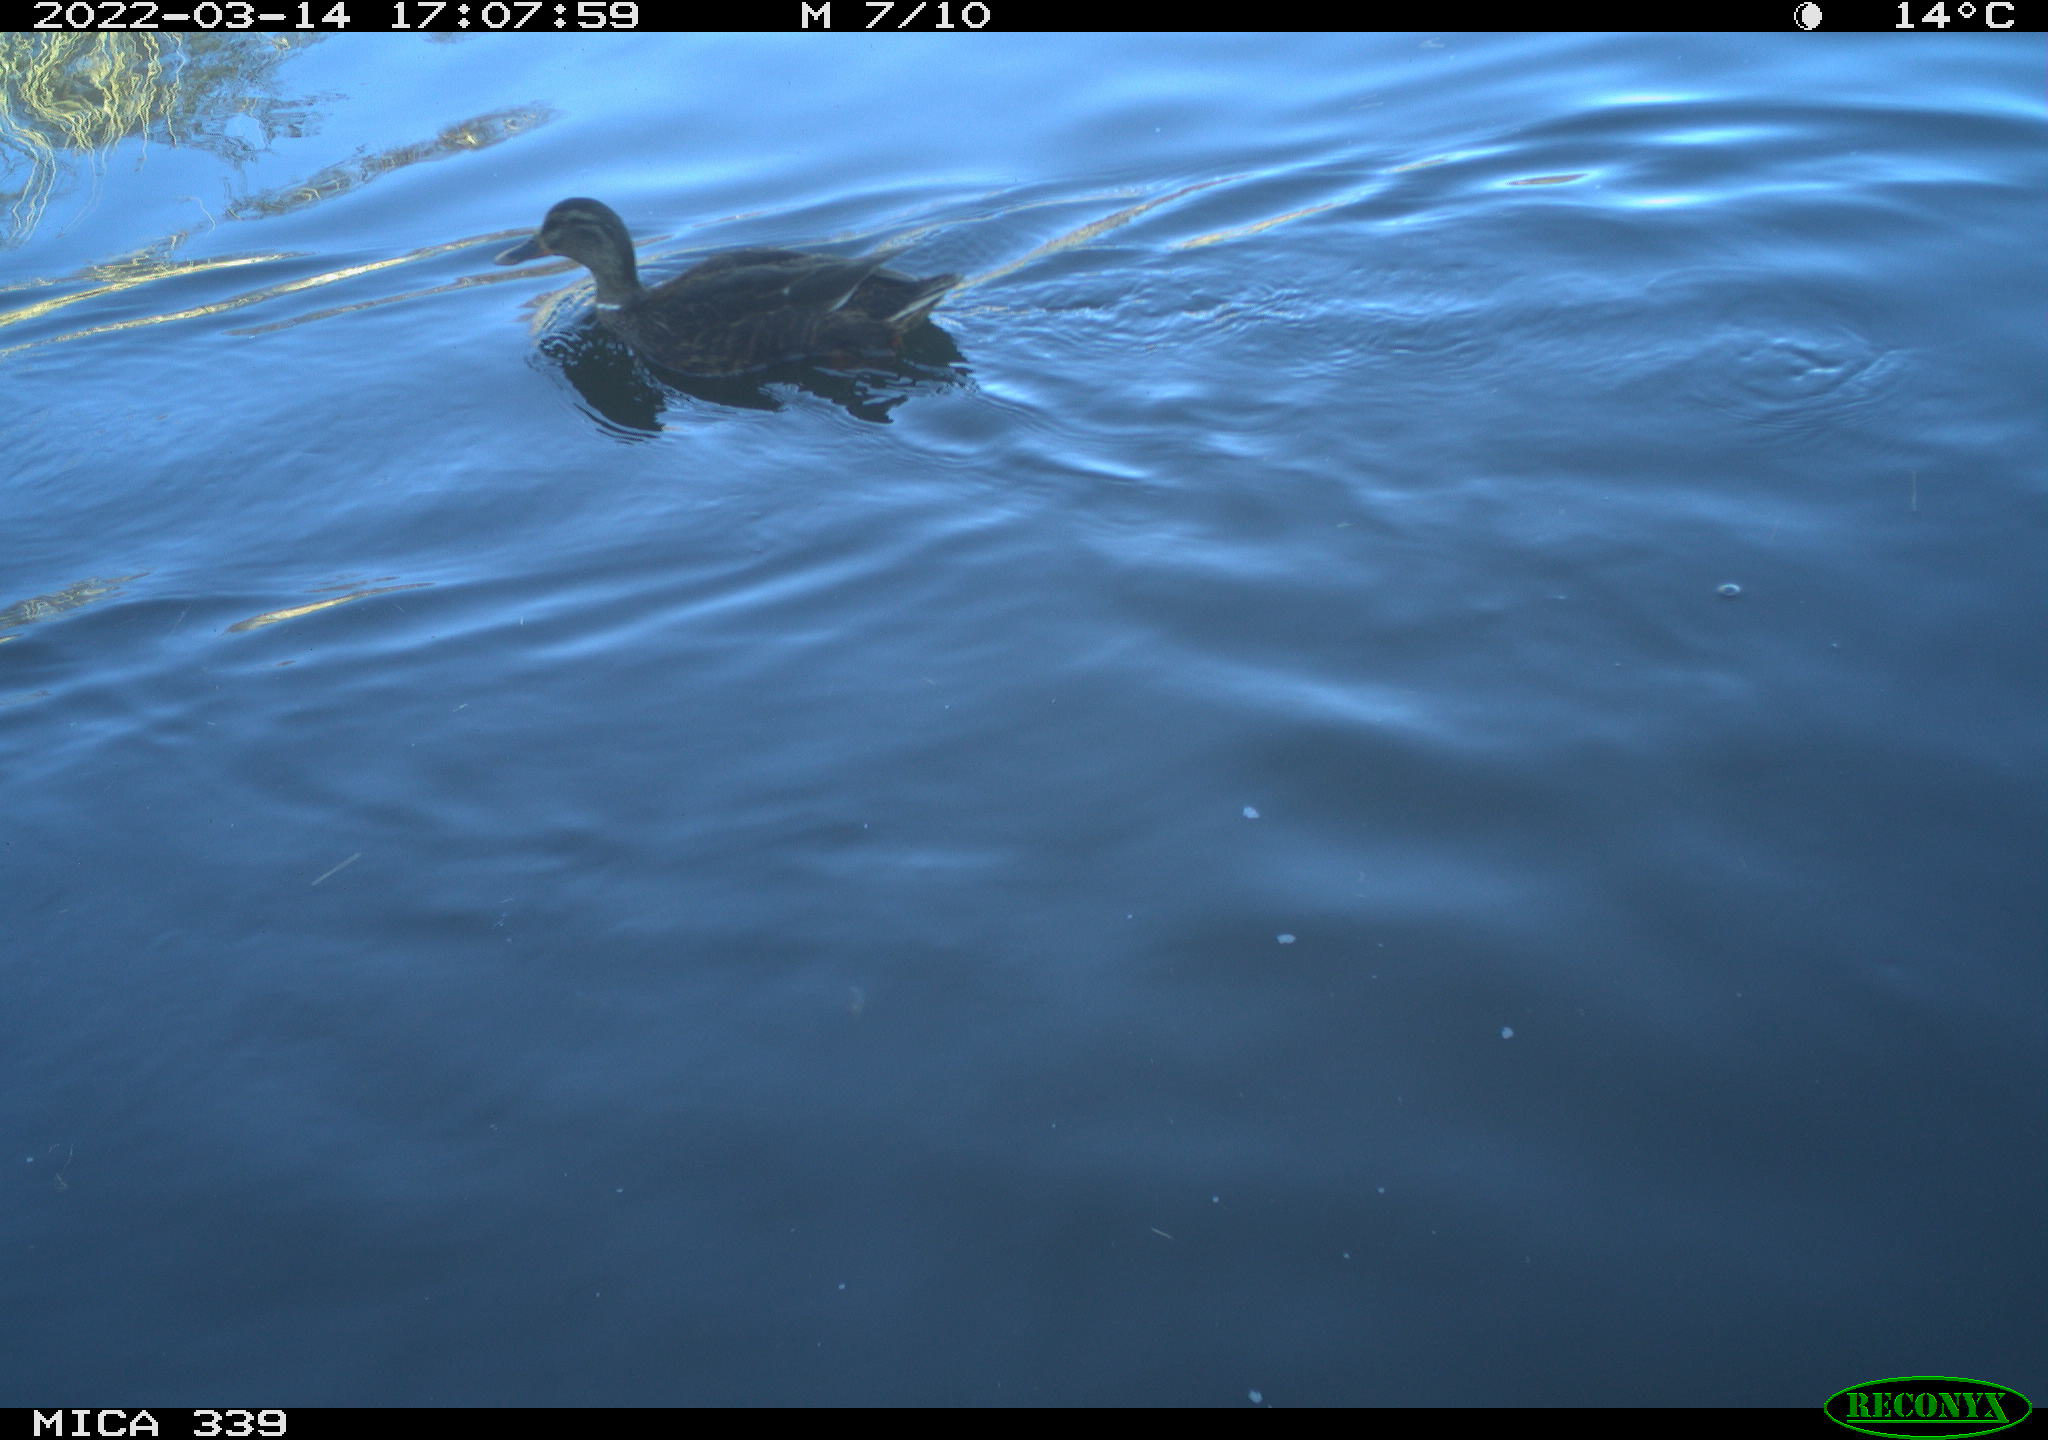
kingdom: Animalia
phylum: Chordata
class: Aves
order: Anseriformes
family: Anatidae
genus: Anas
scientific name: Anas platyrhynchos
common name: Mallard
